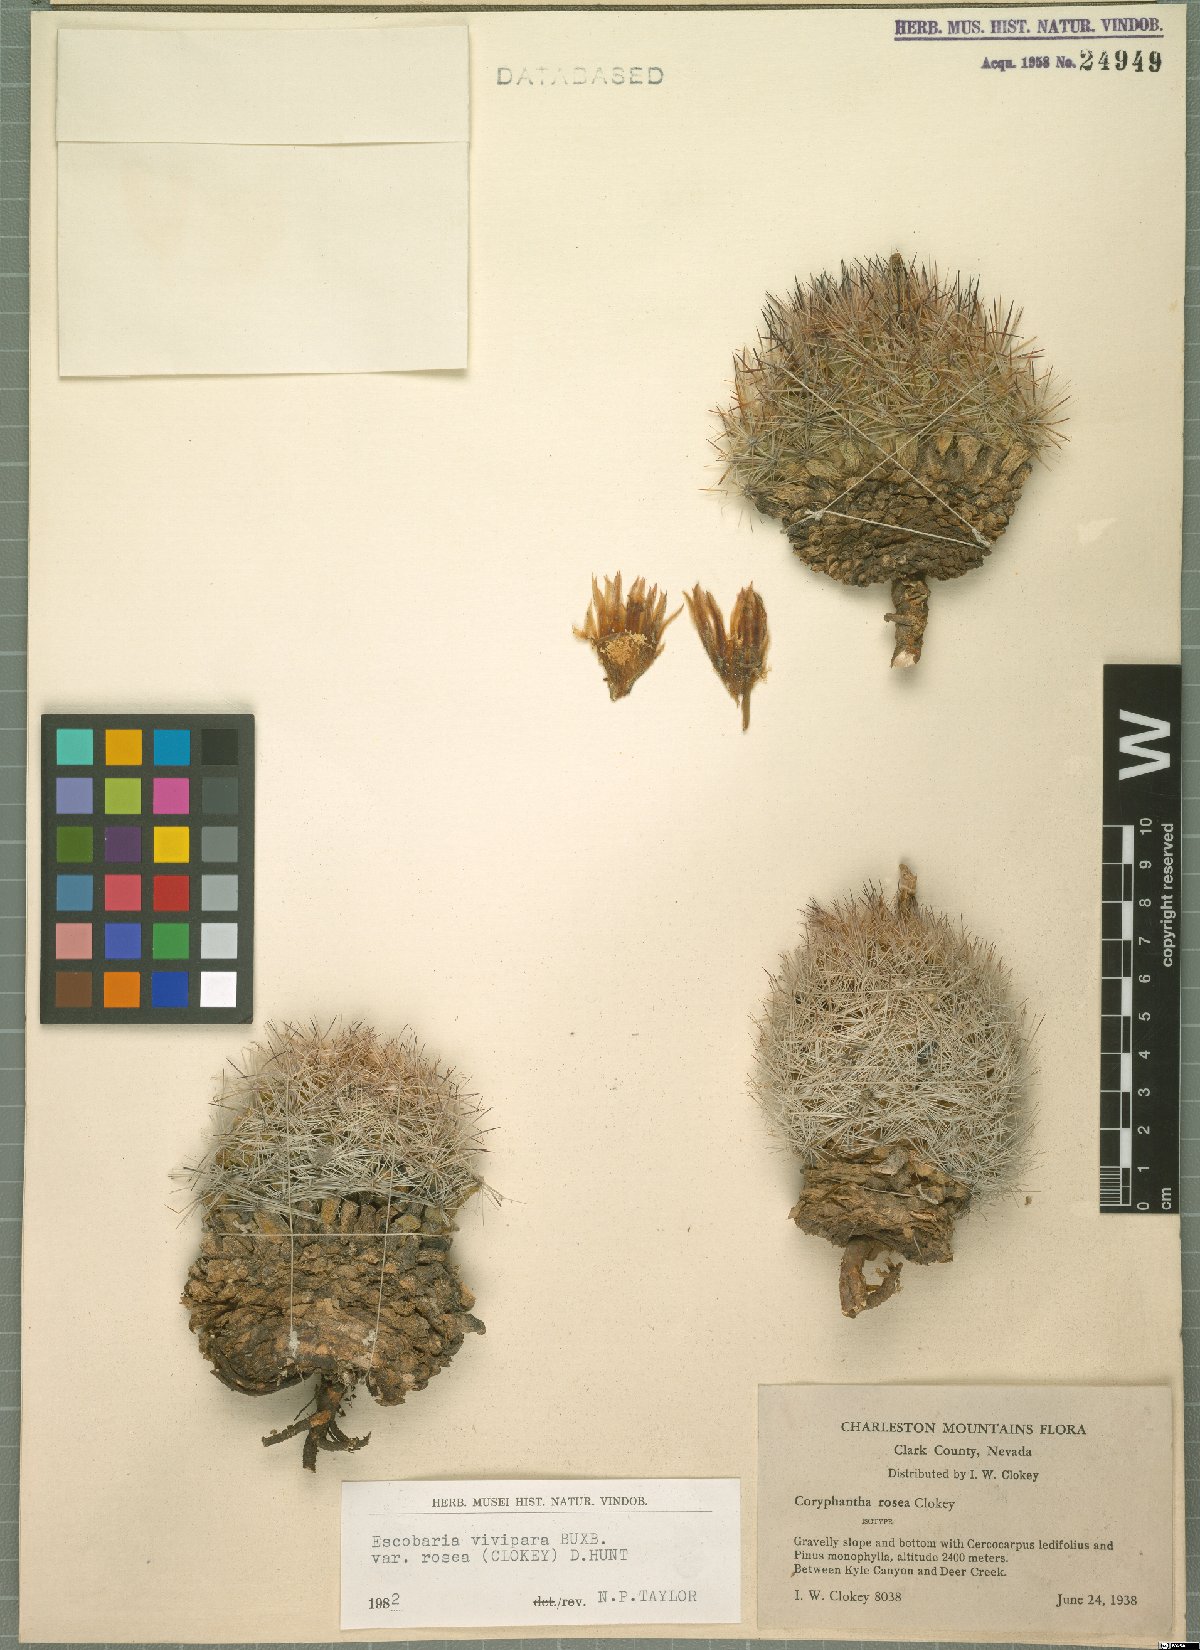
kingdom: Plantae
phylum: Tracheophyta
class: Magnoliopsida
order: Caryophyllales
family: Cactaceae
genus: Pelecyphora
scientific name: Pelecyphora vivipara
